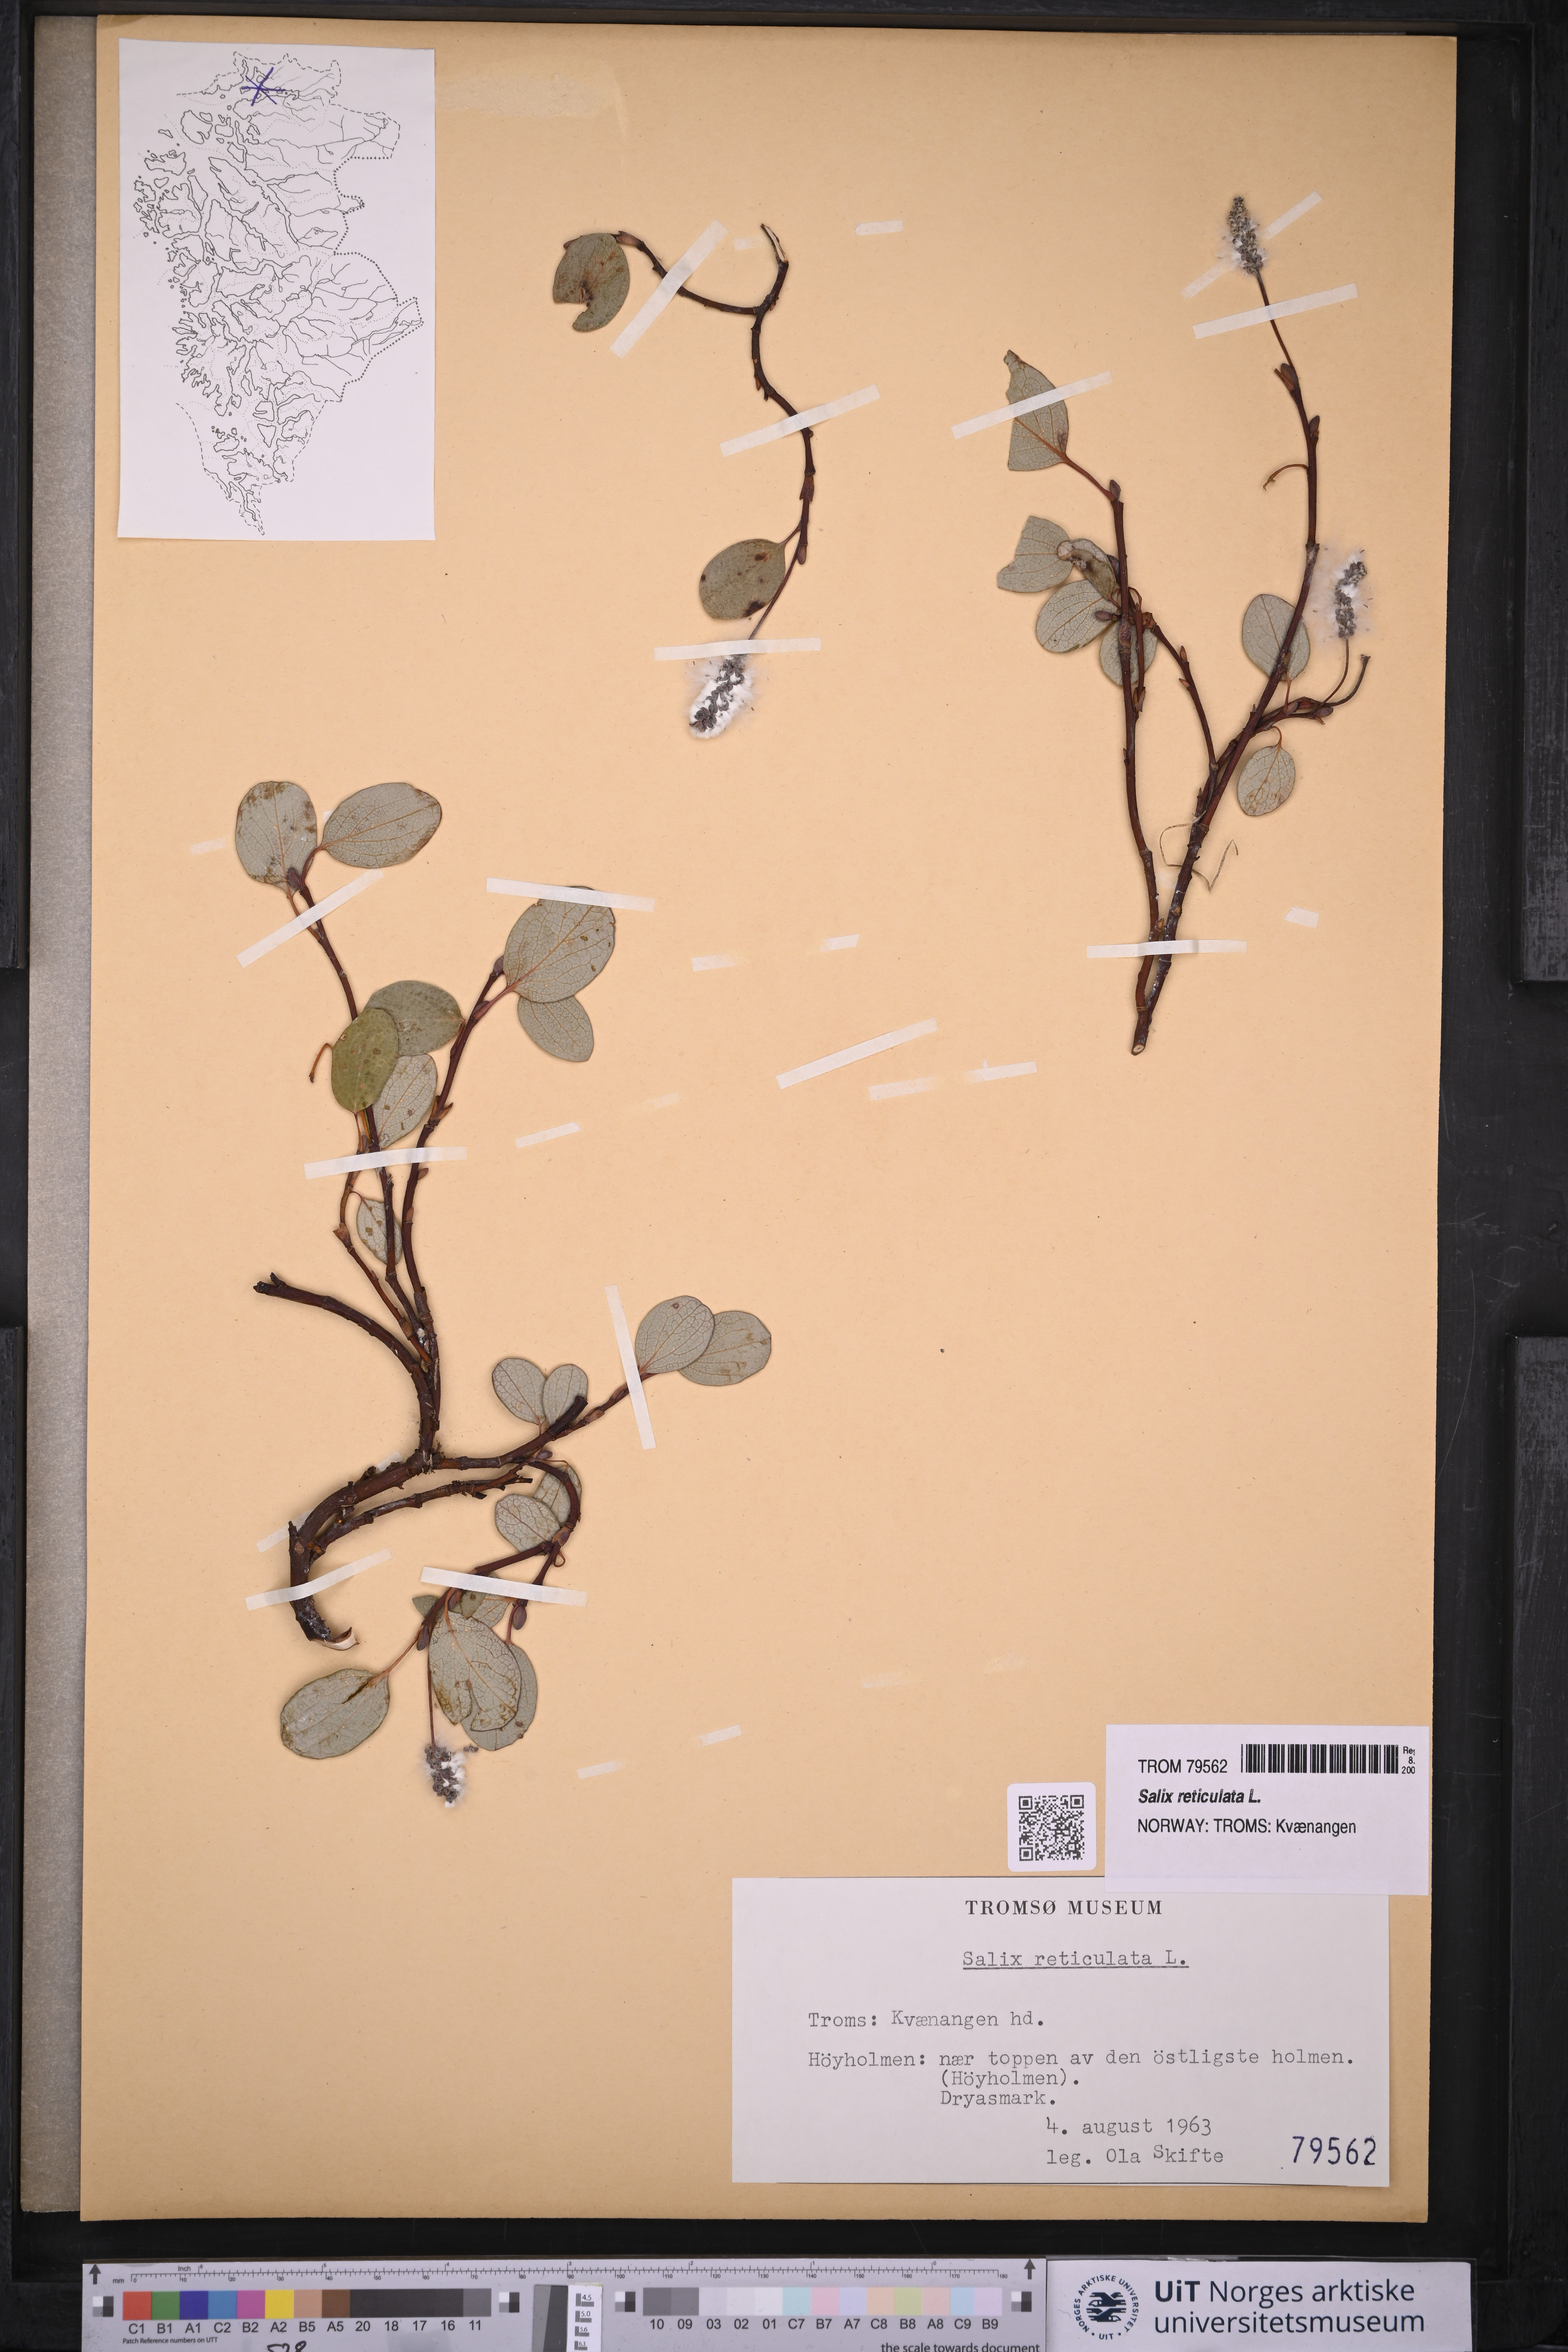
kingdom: Plantae
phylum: Tracheophyta
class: Magnoliopsida
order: Malpighiales
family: Salicaceae
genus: Salix
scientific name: Salix reticulata
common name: Net-leaved willow
